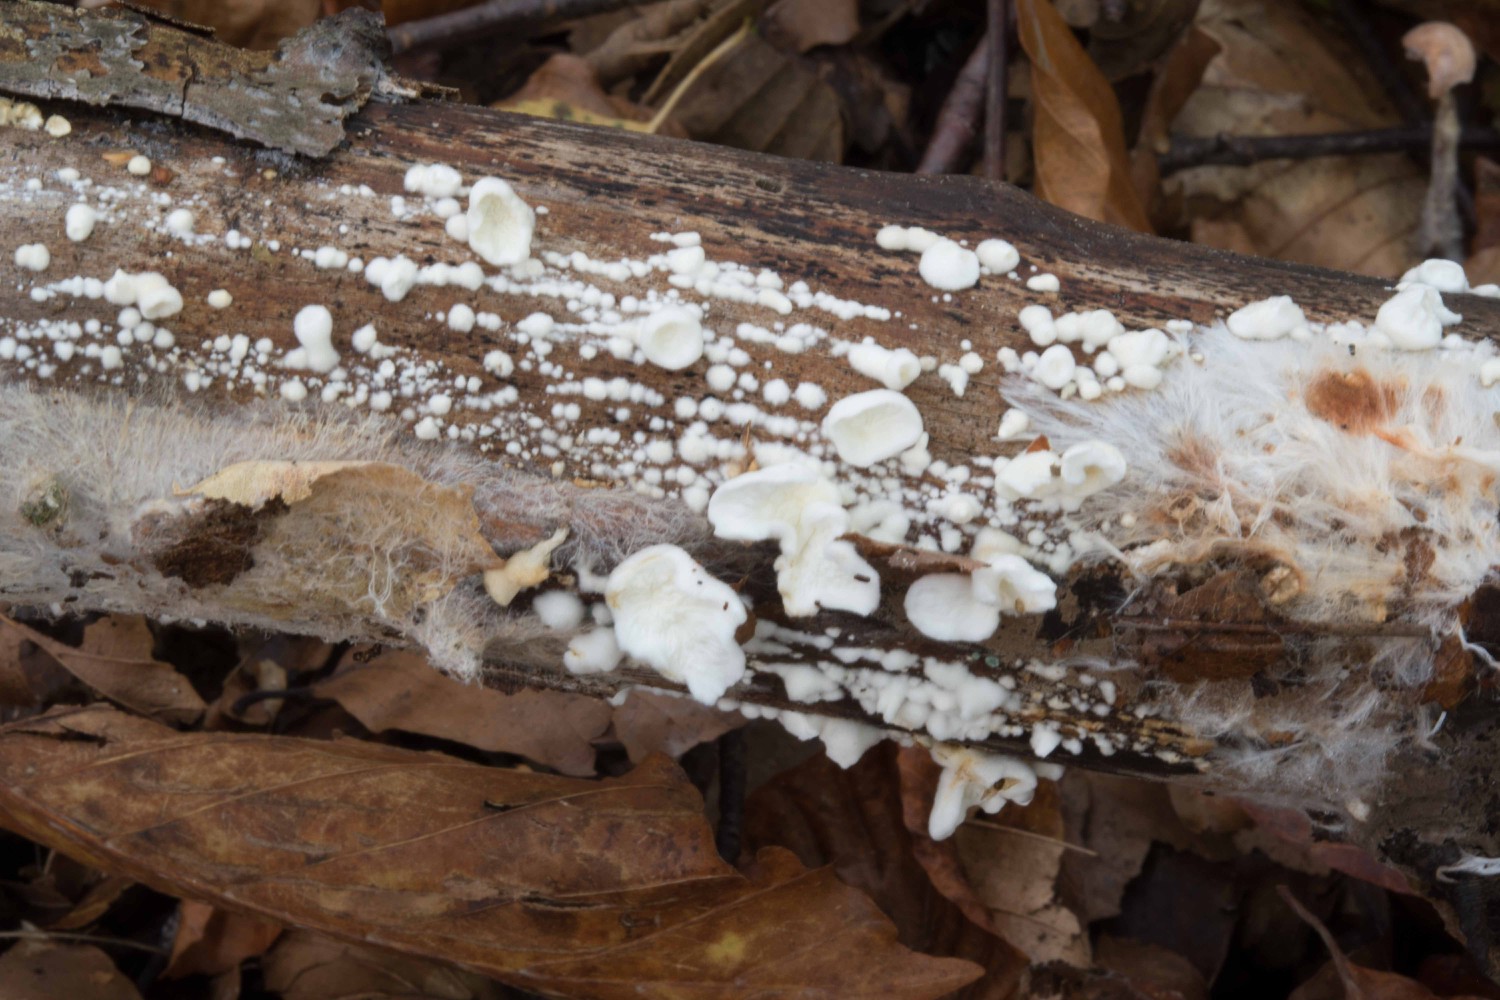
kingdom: Fungi
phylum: Basidiomycota
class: Agaricomycetes
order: Amylocorticiales
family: Amylocorticiaceae
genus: Plicaturopsis
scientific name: Plicaturopsis crispa
